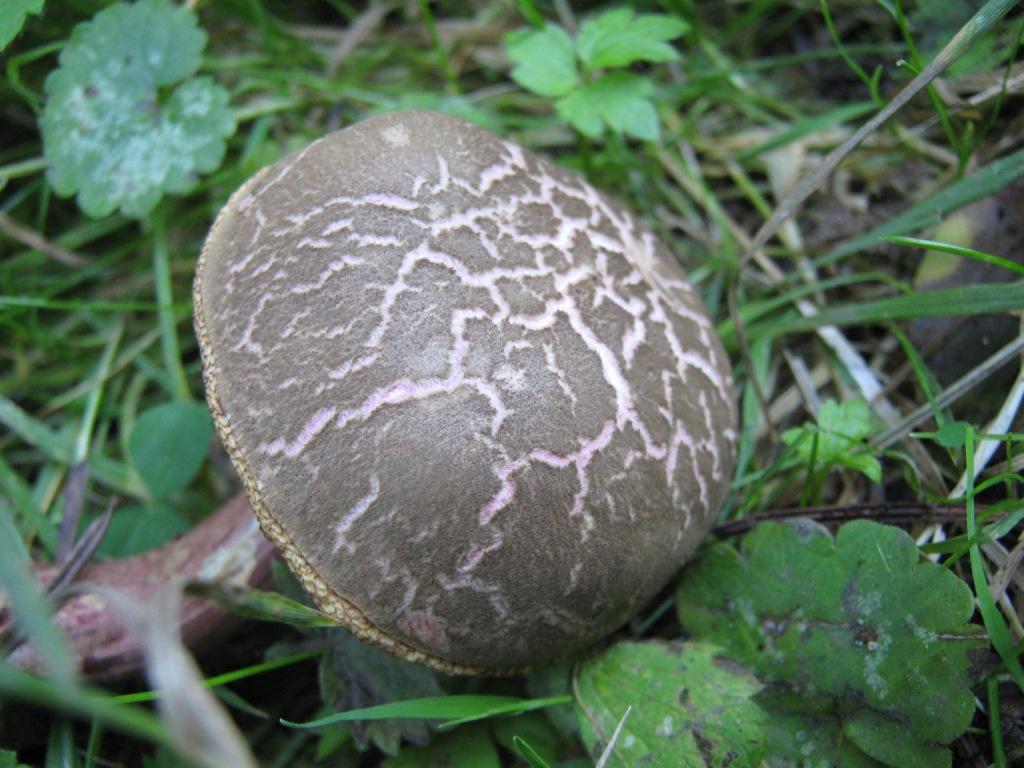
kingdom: Fungi
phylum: Basidiomycota
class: Agaricomycetes
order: Boletales
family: Boletaceae
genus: Xerocomellus
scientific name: Xerocomellus chrysenteron
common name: rødsprukken rørhat
